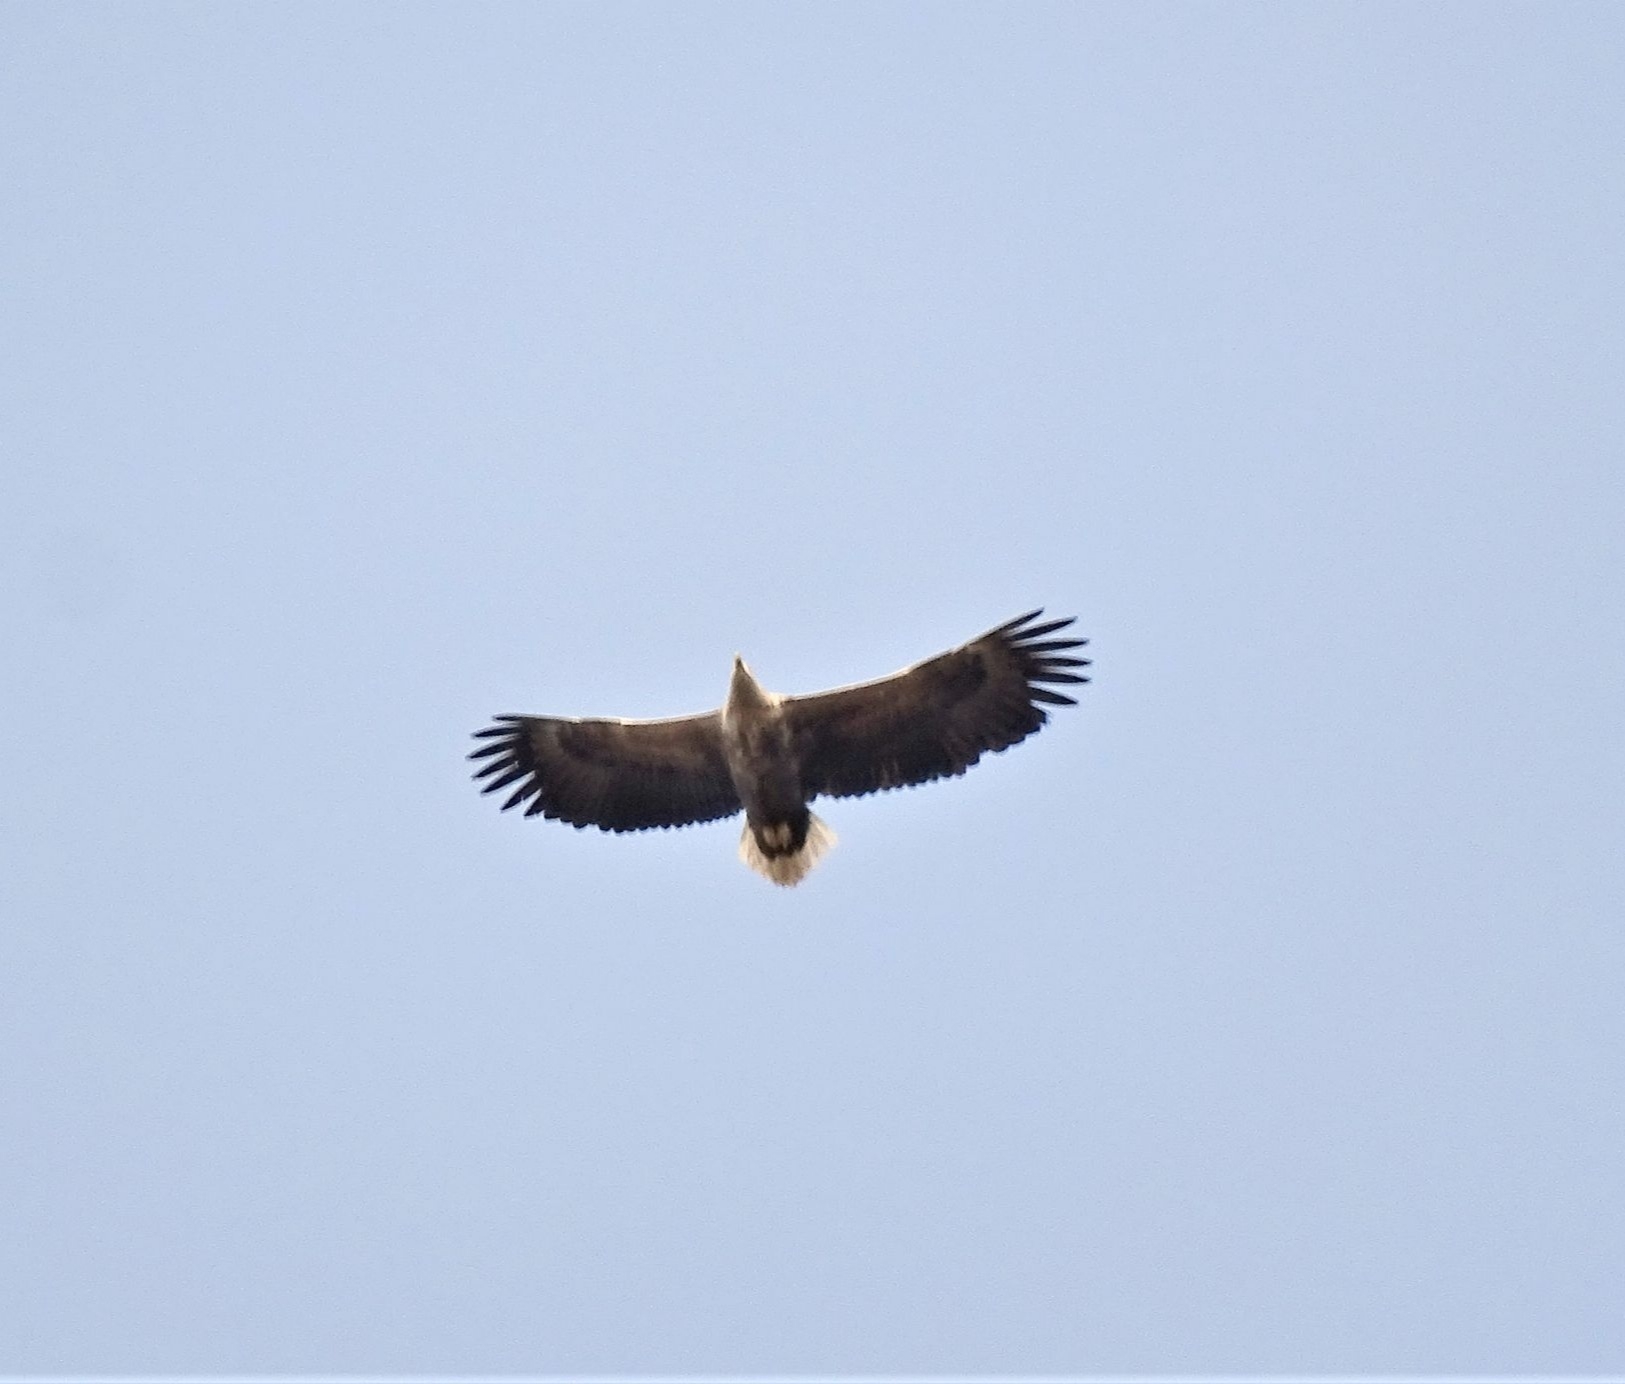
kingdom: Animalia
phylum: Chordata
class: Aves
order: Accipitriformes
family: Accipitridae
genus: Haliaeetus
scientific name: Haliaeetus albicilla
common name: Havørn
